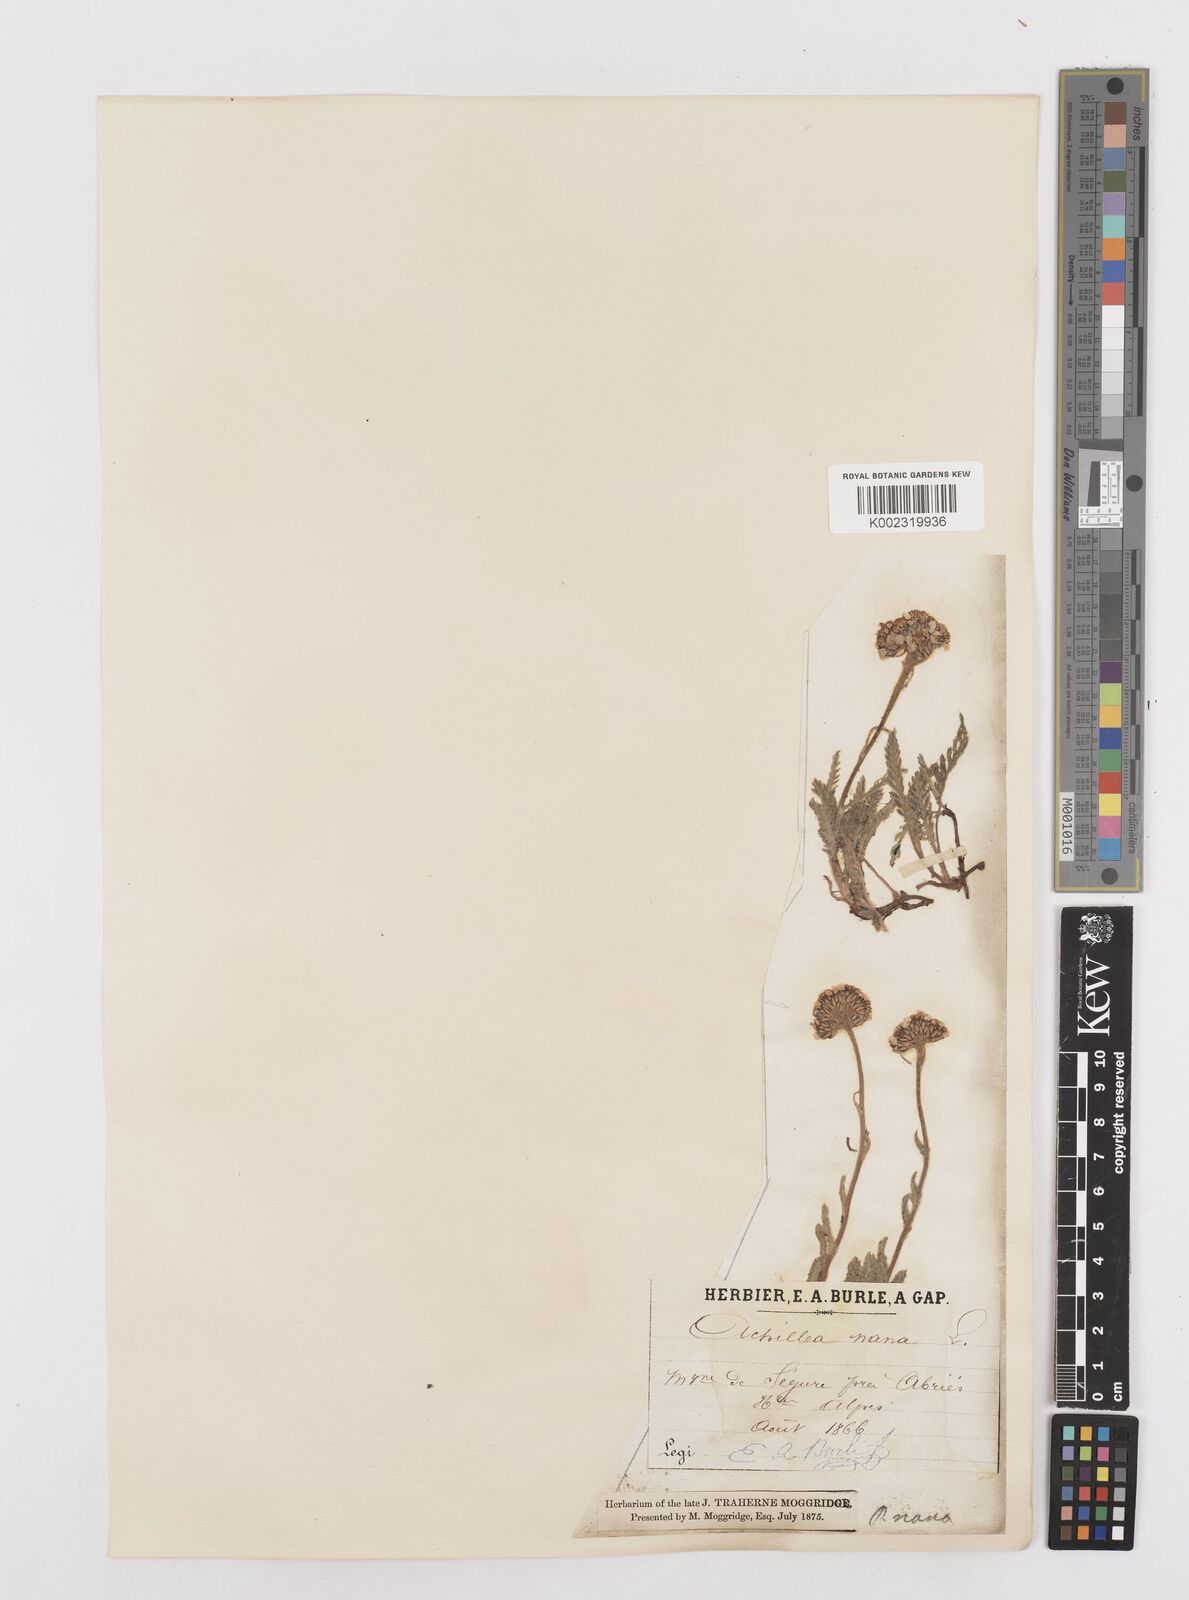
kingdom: Plantae
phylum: Tracheophyta
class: Magnoliopsida
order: Asterales
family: Asteraceae
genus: Achillea
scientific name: Achillea
